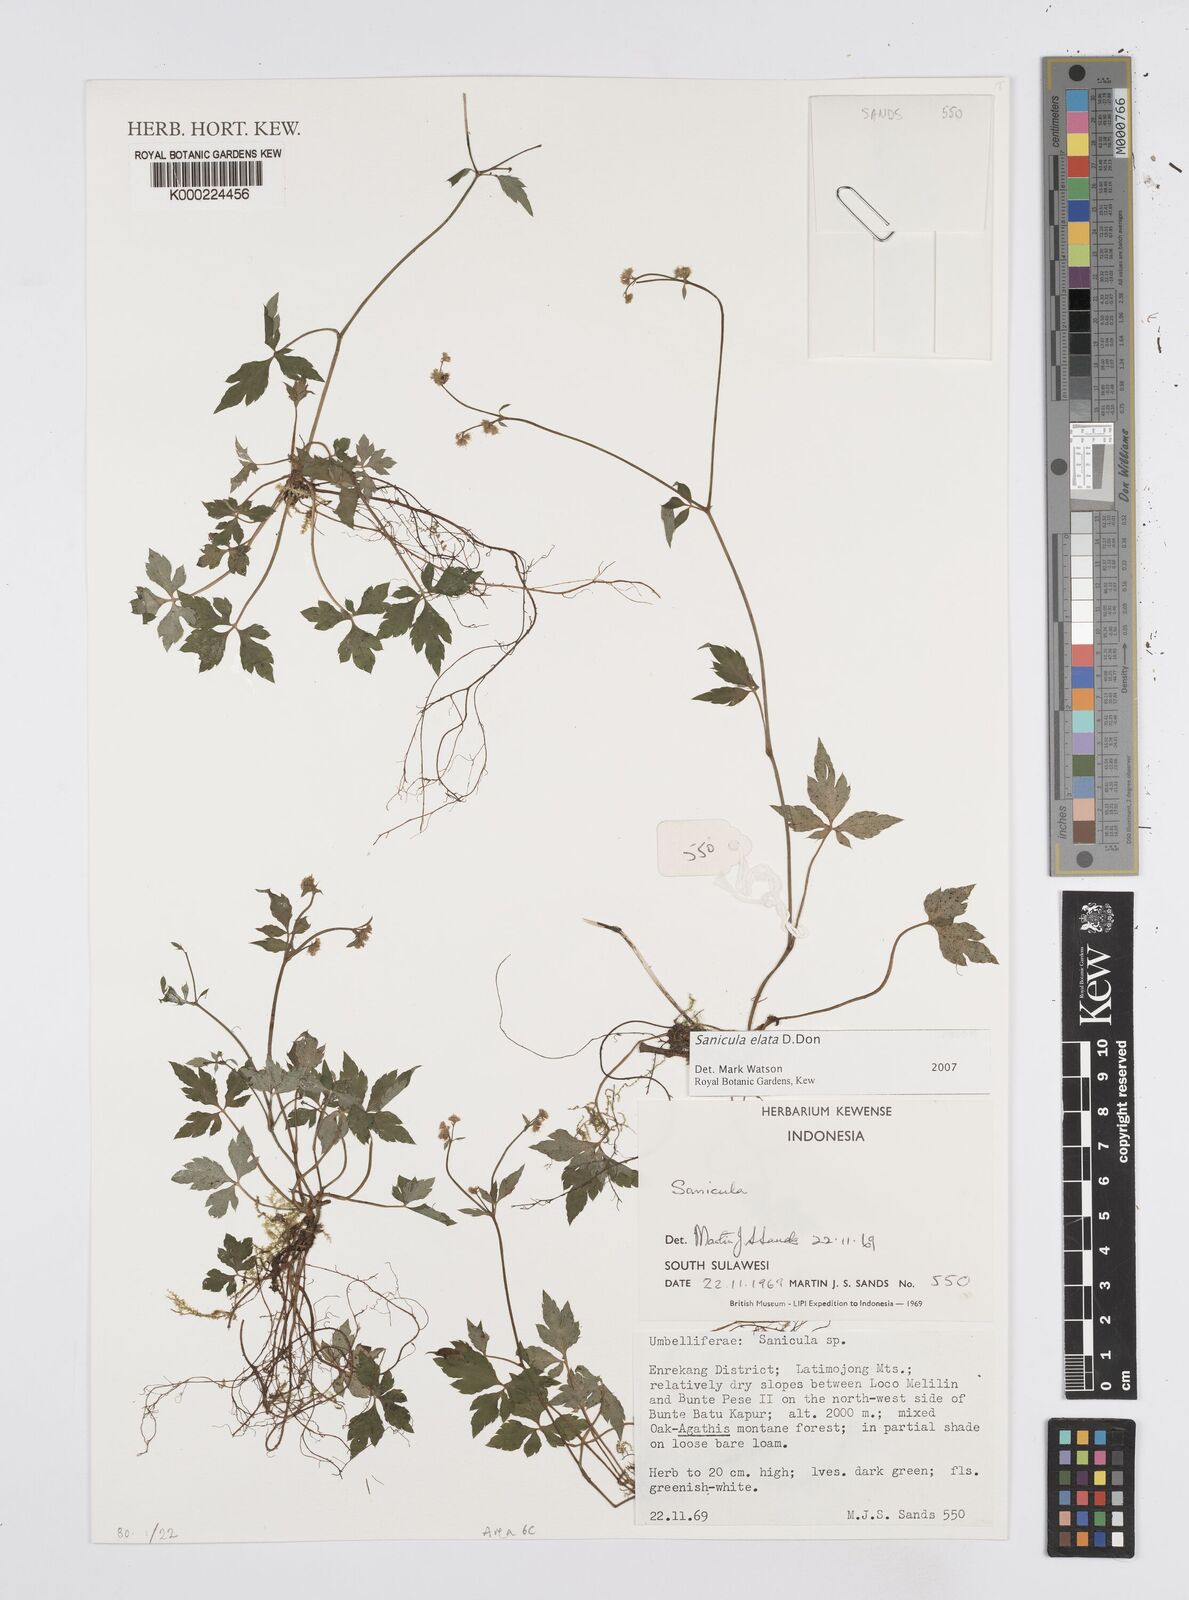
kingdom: Plantae
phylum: Tracheophyta
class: Magnoliopsida
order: Apiales
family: Apiaceae
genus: Sanicula
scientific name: Sanicula elata
